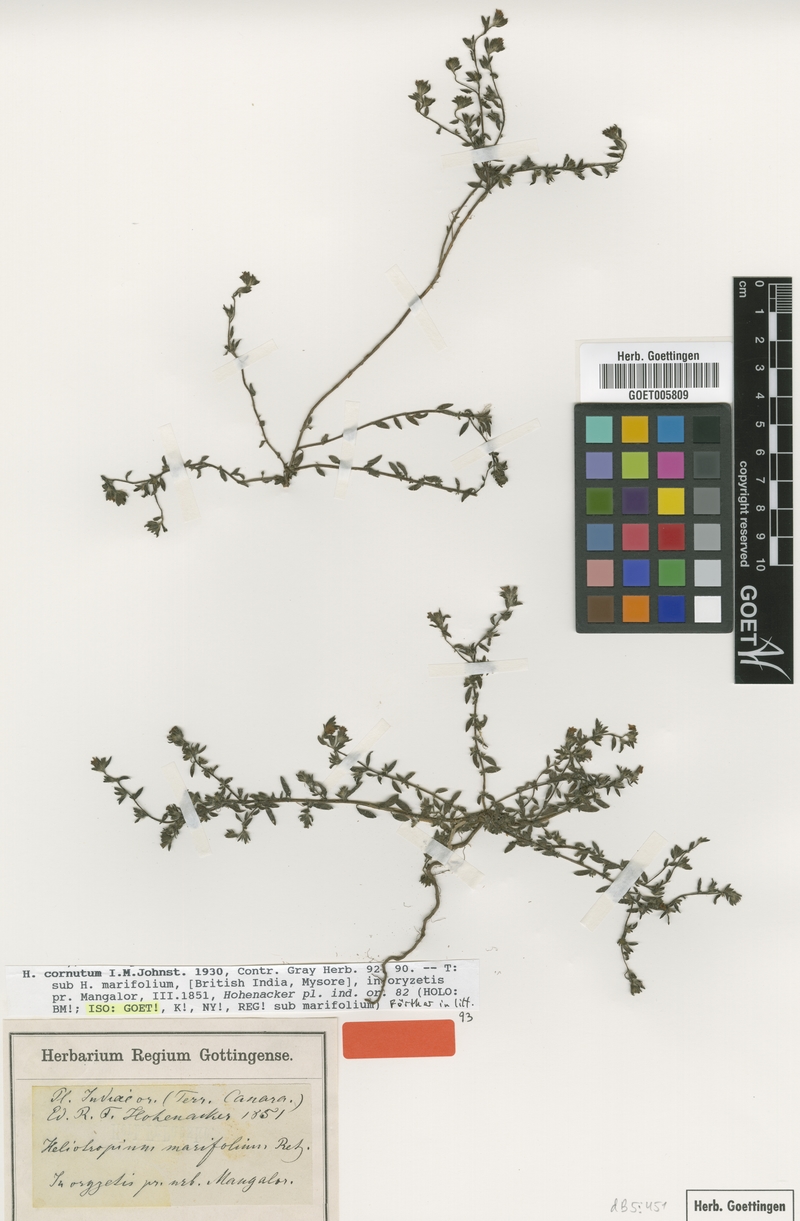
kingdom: Plantae
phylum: Tracheophyta
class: Magnoliopsida
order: Boraginales
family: Heliotropiaceae
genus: Euploca
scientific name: Euploca cornuta
